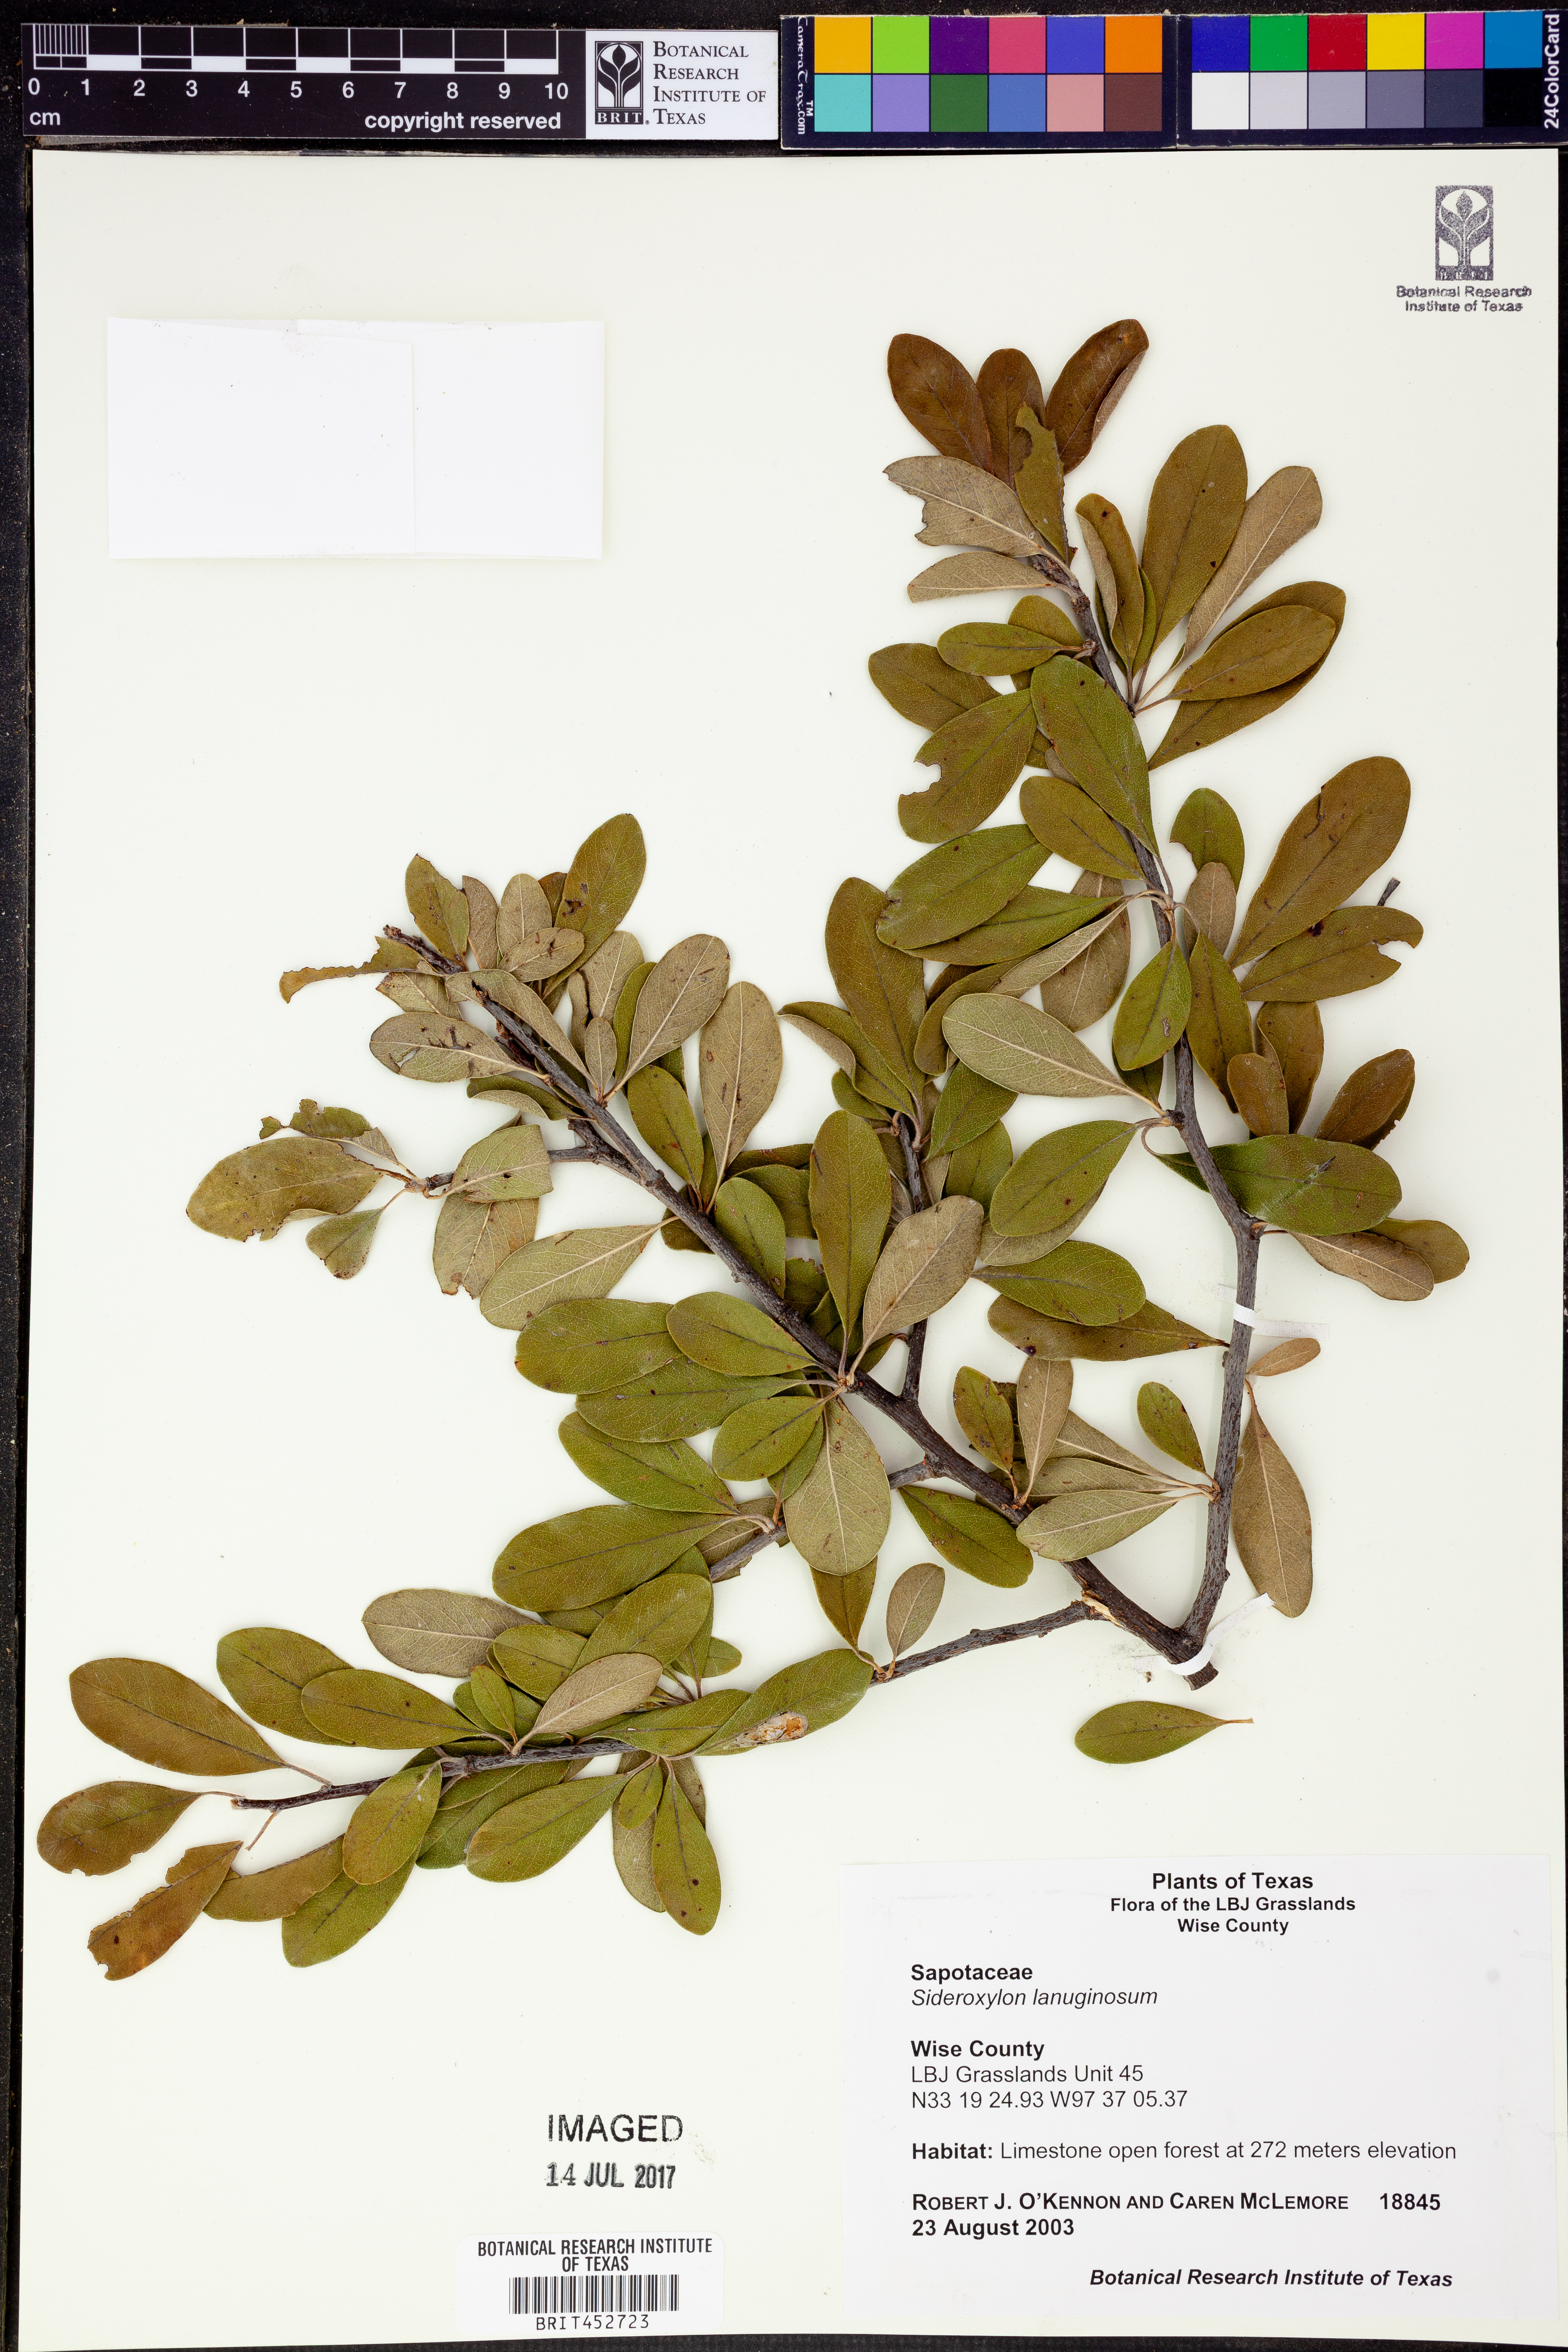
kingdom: Plantae
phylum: Tracheophyta
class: Magnoliopsida
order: Ericales
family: Sapotaceae
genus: Sideroxylon
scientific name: Sideroxylon lanuginosum
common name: Chittamwood
